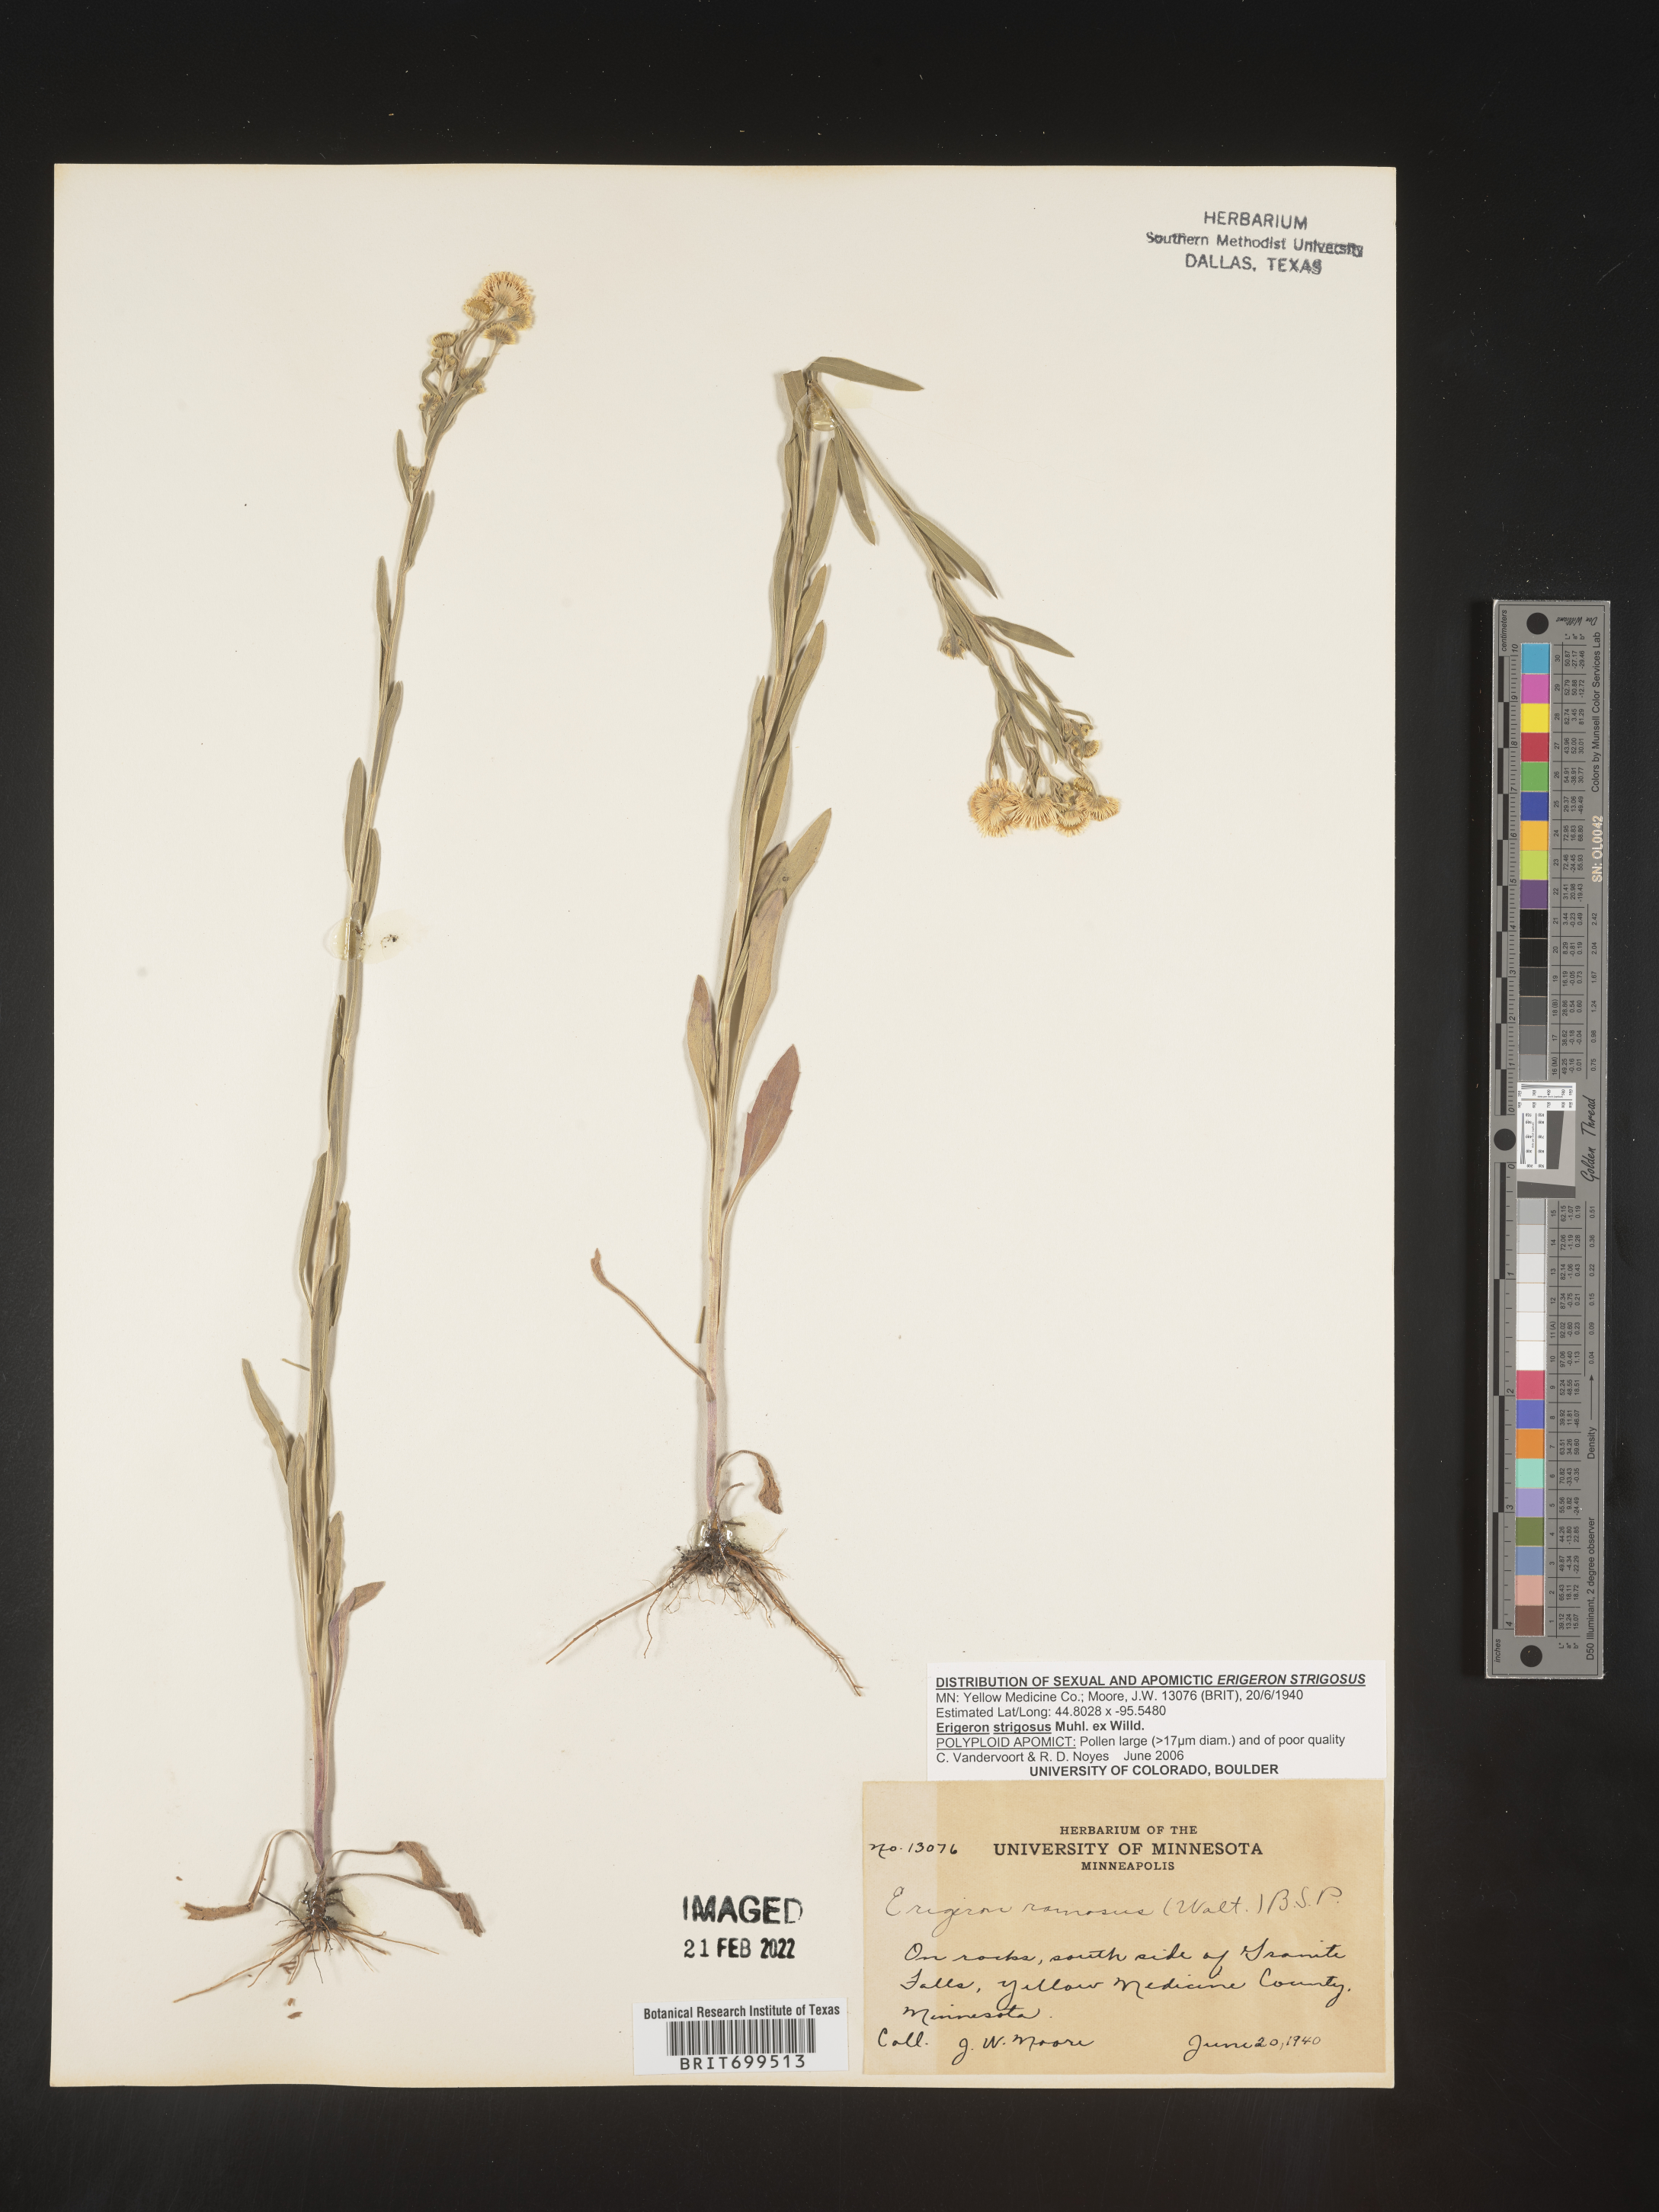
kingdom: Plantae
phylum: Tracheophyta
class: Magnoliopsida
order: Asterales
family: Asteraceae
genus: Erigeron
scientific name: Erigeron strigosus
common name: Common eastern fleabane
